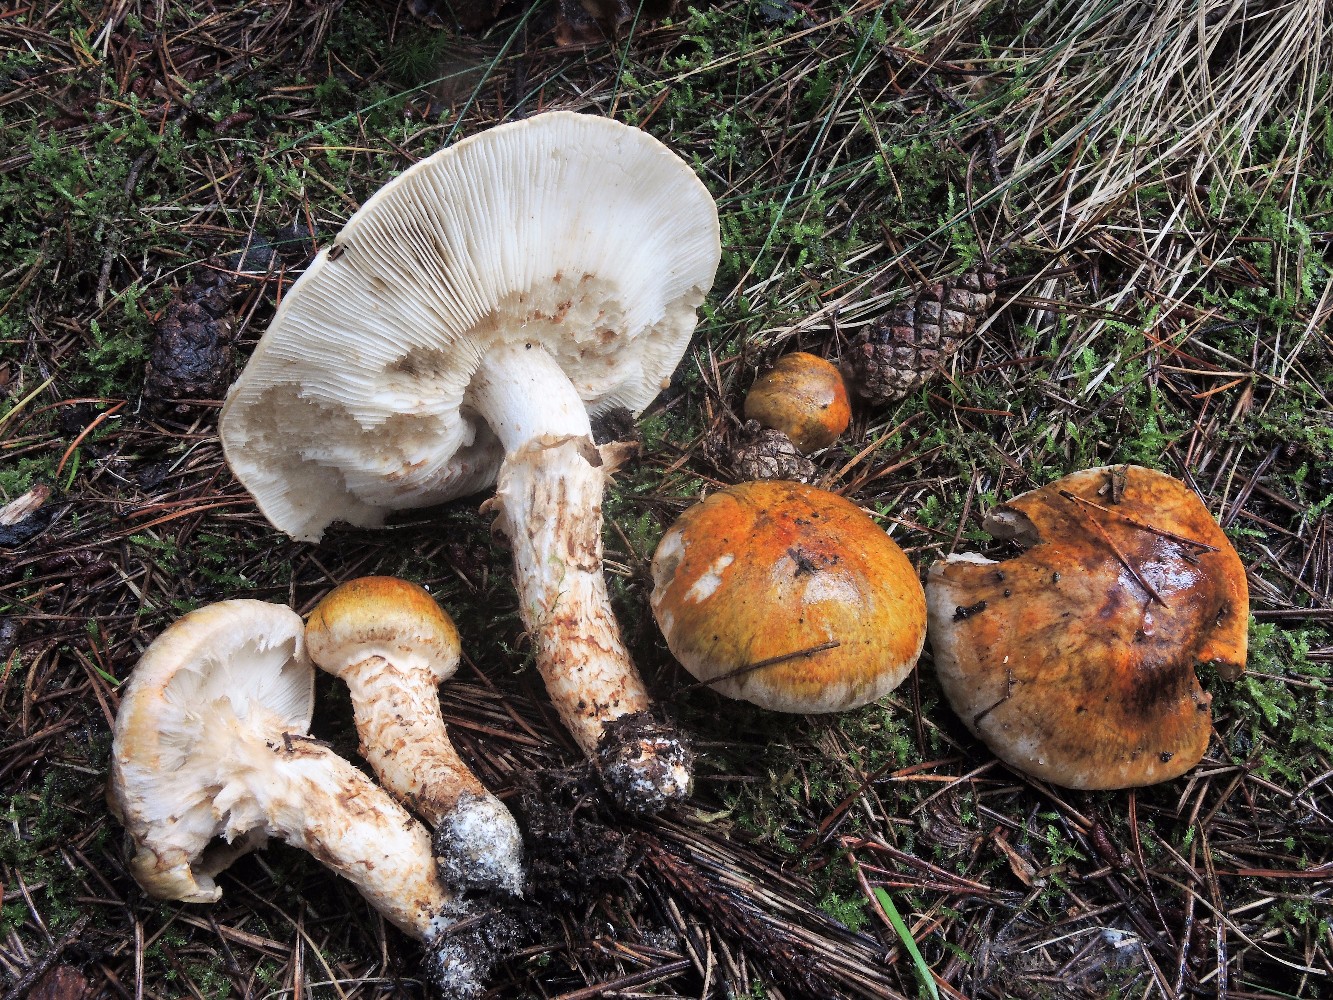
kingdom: Fungi
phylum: Basidiomycota
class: Agaricomycetes
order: Agaricales
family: Tricholomataceae
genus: Tricholoma
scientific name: Tricholoma focale
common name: halsbånd-ridderhat
